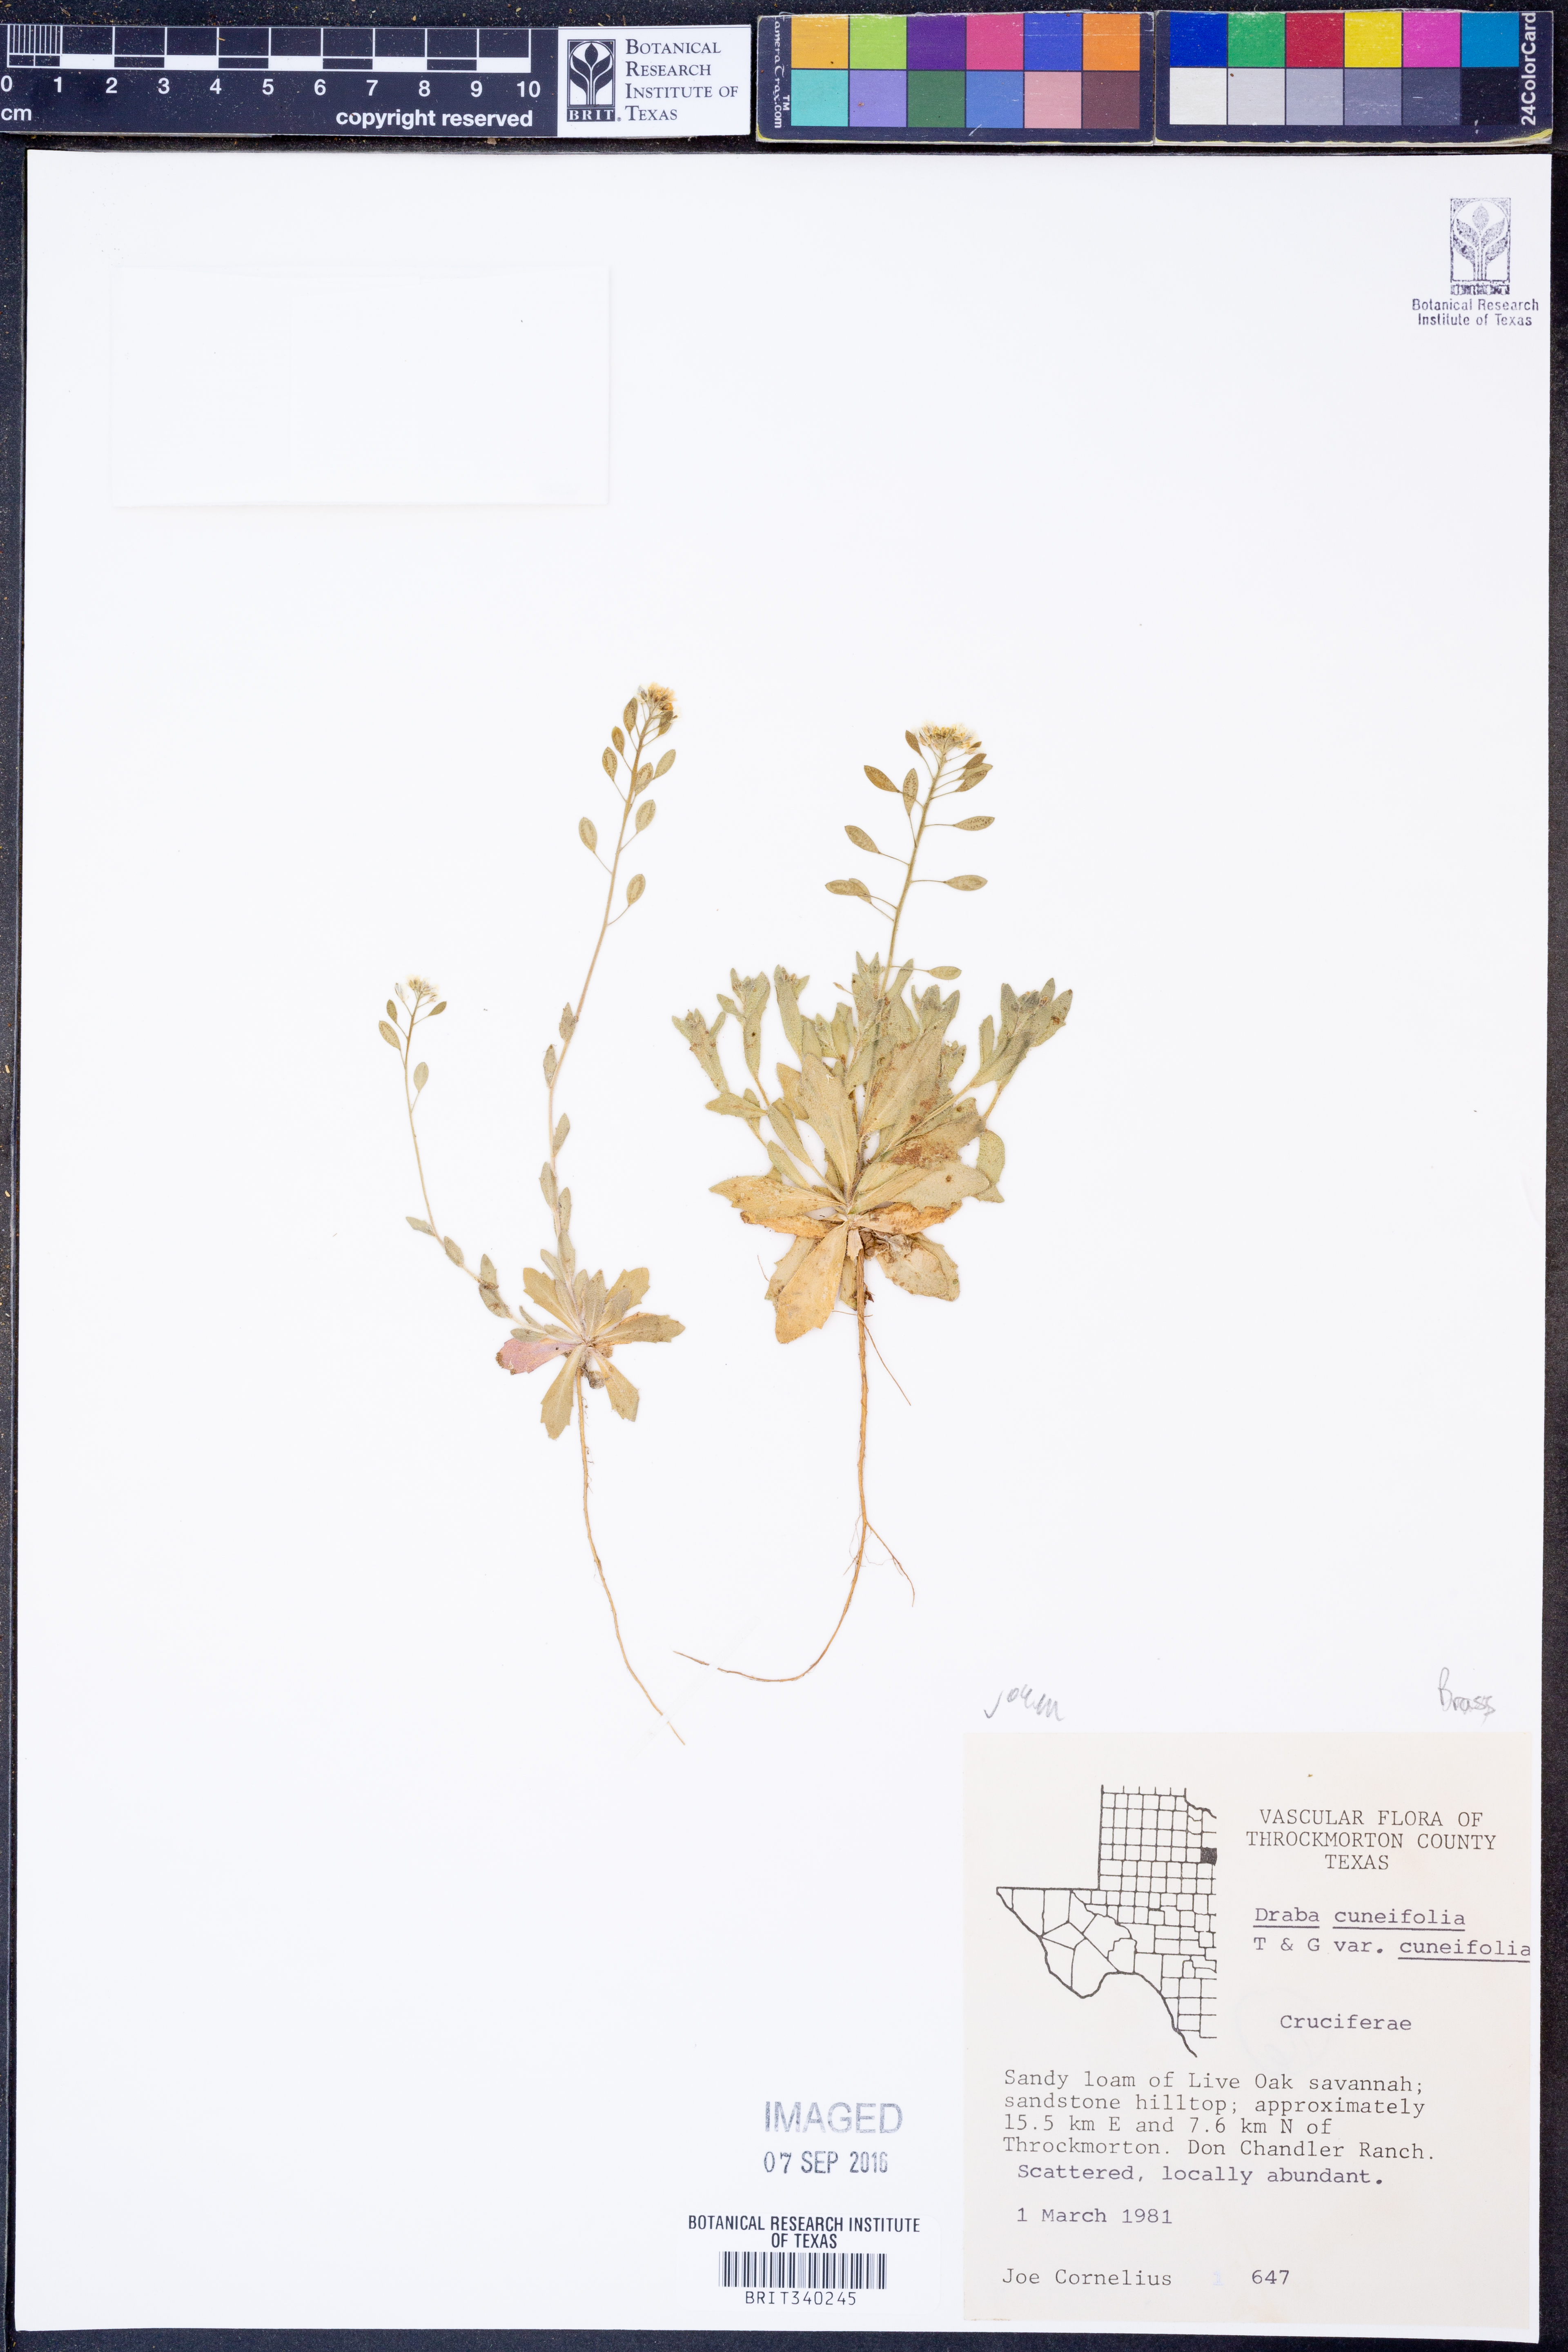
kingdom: Plantae
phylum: Tracheophyta
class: Magnoliopsida
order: Brassicales
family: Brassicaceae
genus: Tomostima
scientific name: Tomostima cuneifolia
